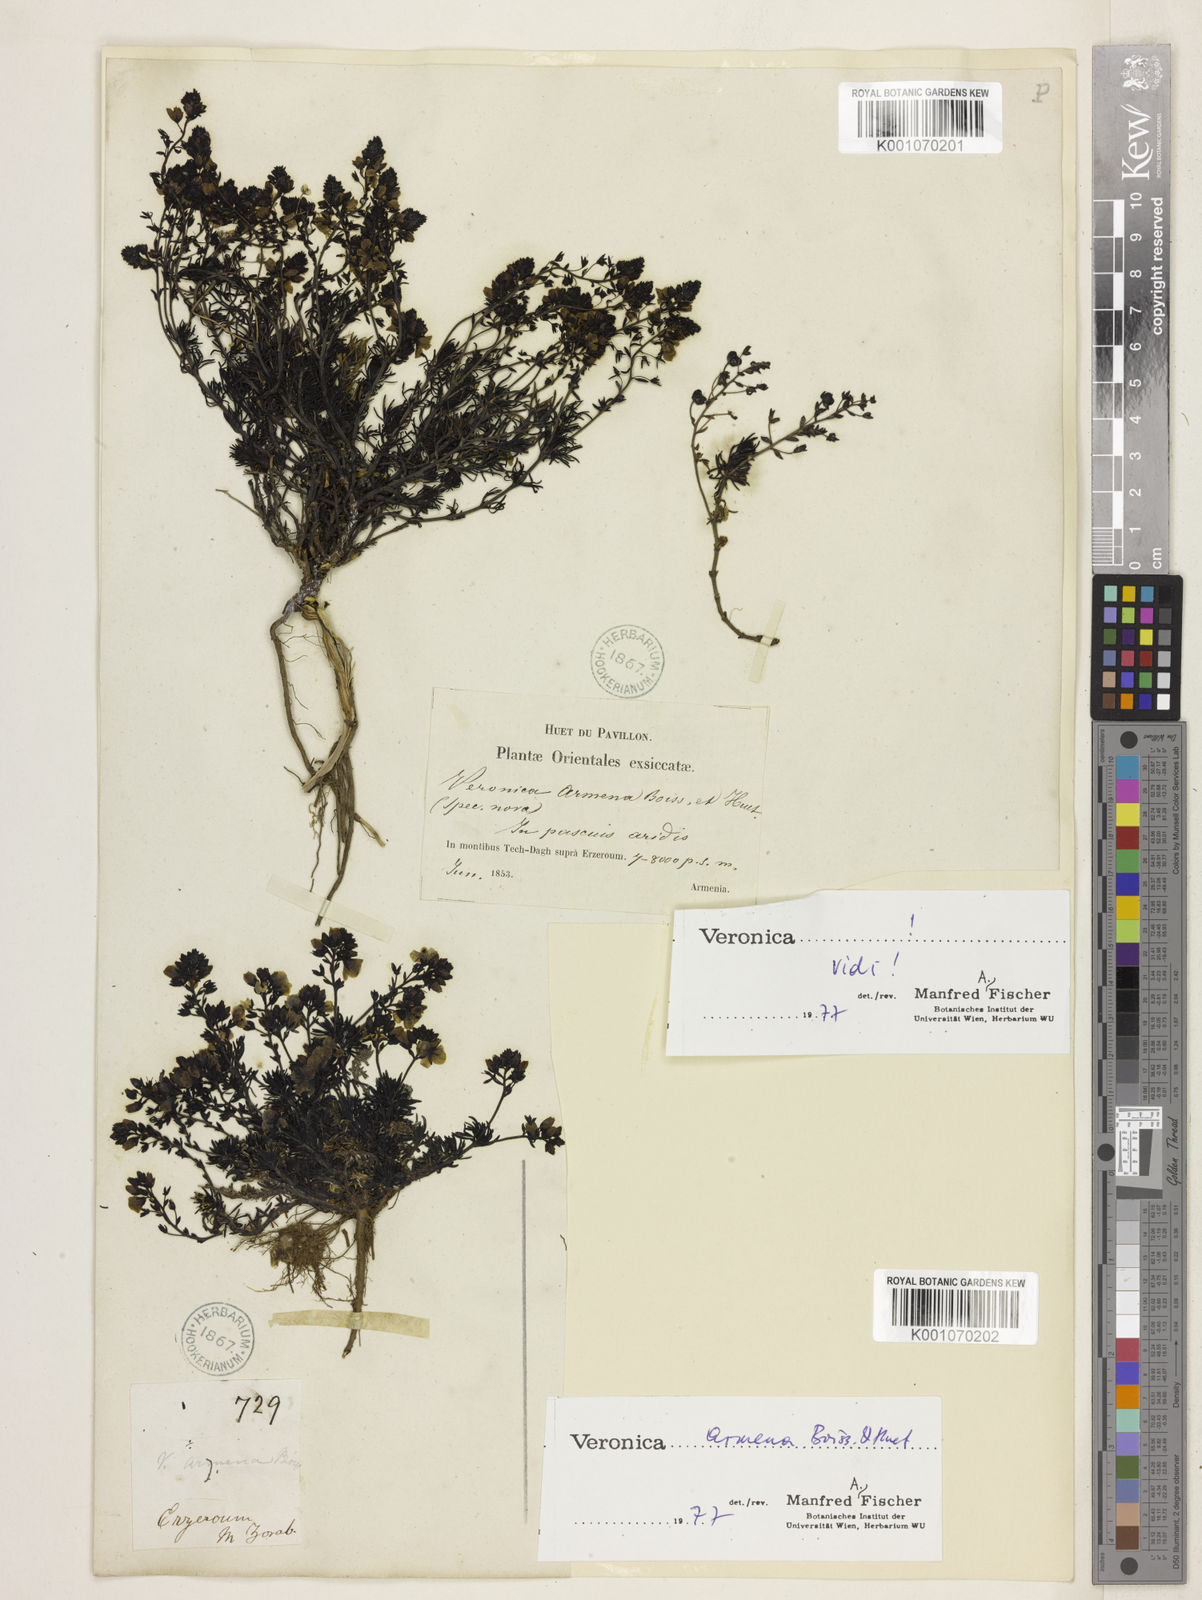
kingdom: Plantae
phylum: Tracheophyta
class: Magnoliopsida
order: Lamiales
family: Plantaginaceae
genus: Veronica
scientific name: Veronica armena
